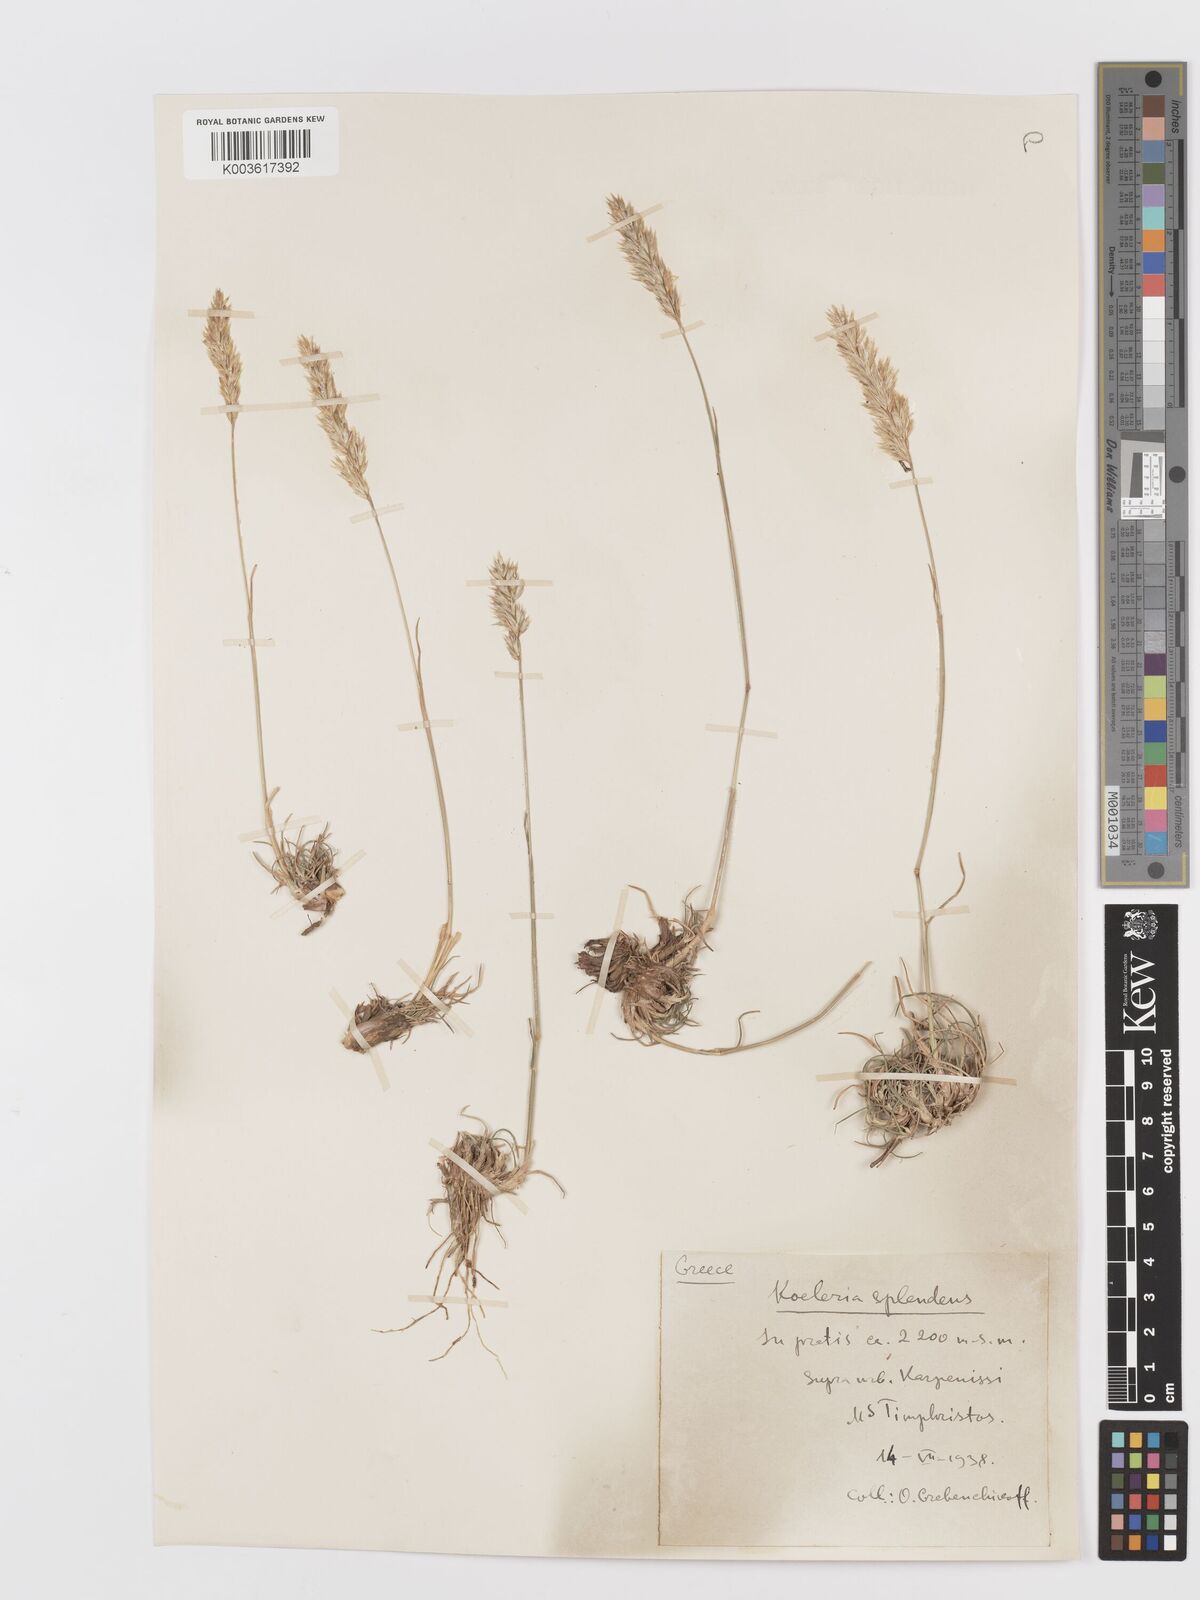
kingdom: Plantae
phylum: Tracheophyta
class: Liliopsida
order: Poales
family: Poaceae
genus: Koeleria
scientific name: Koeleria splendens
